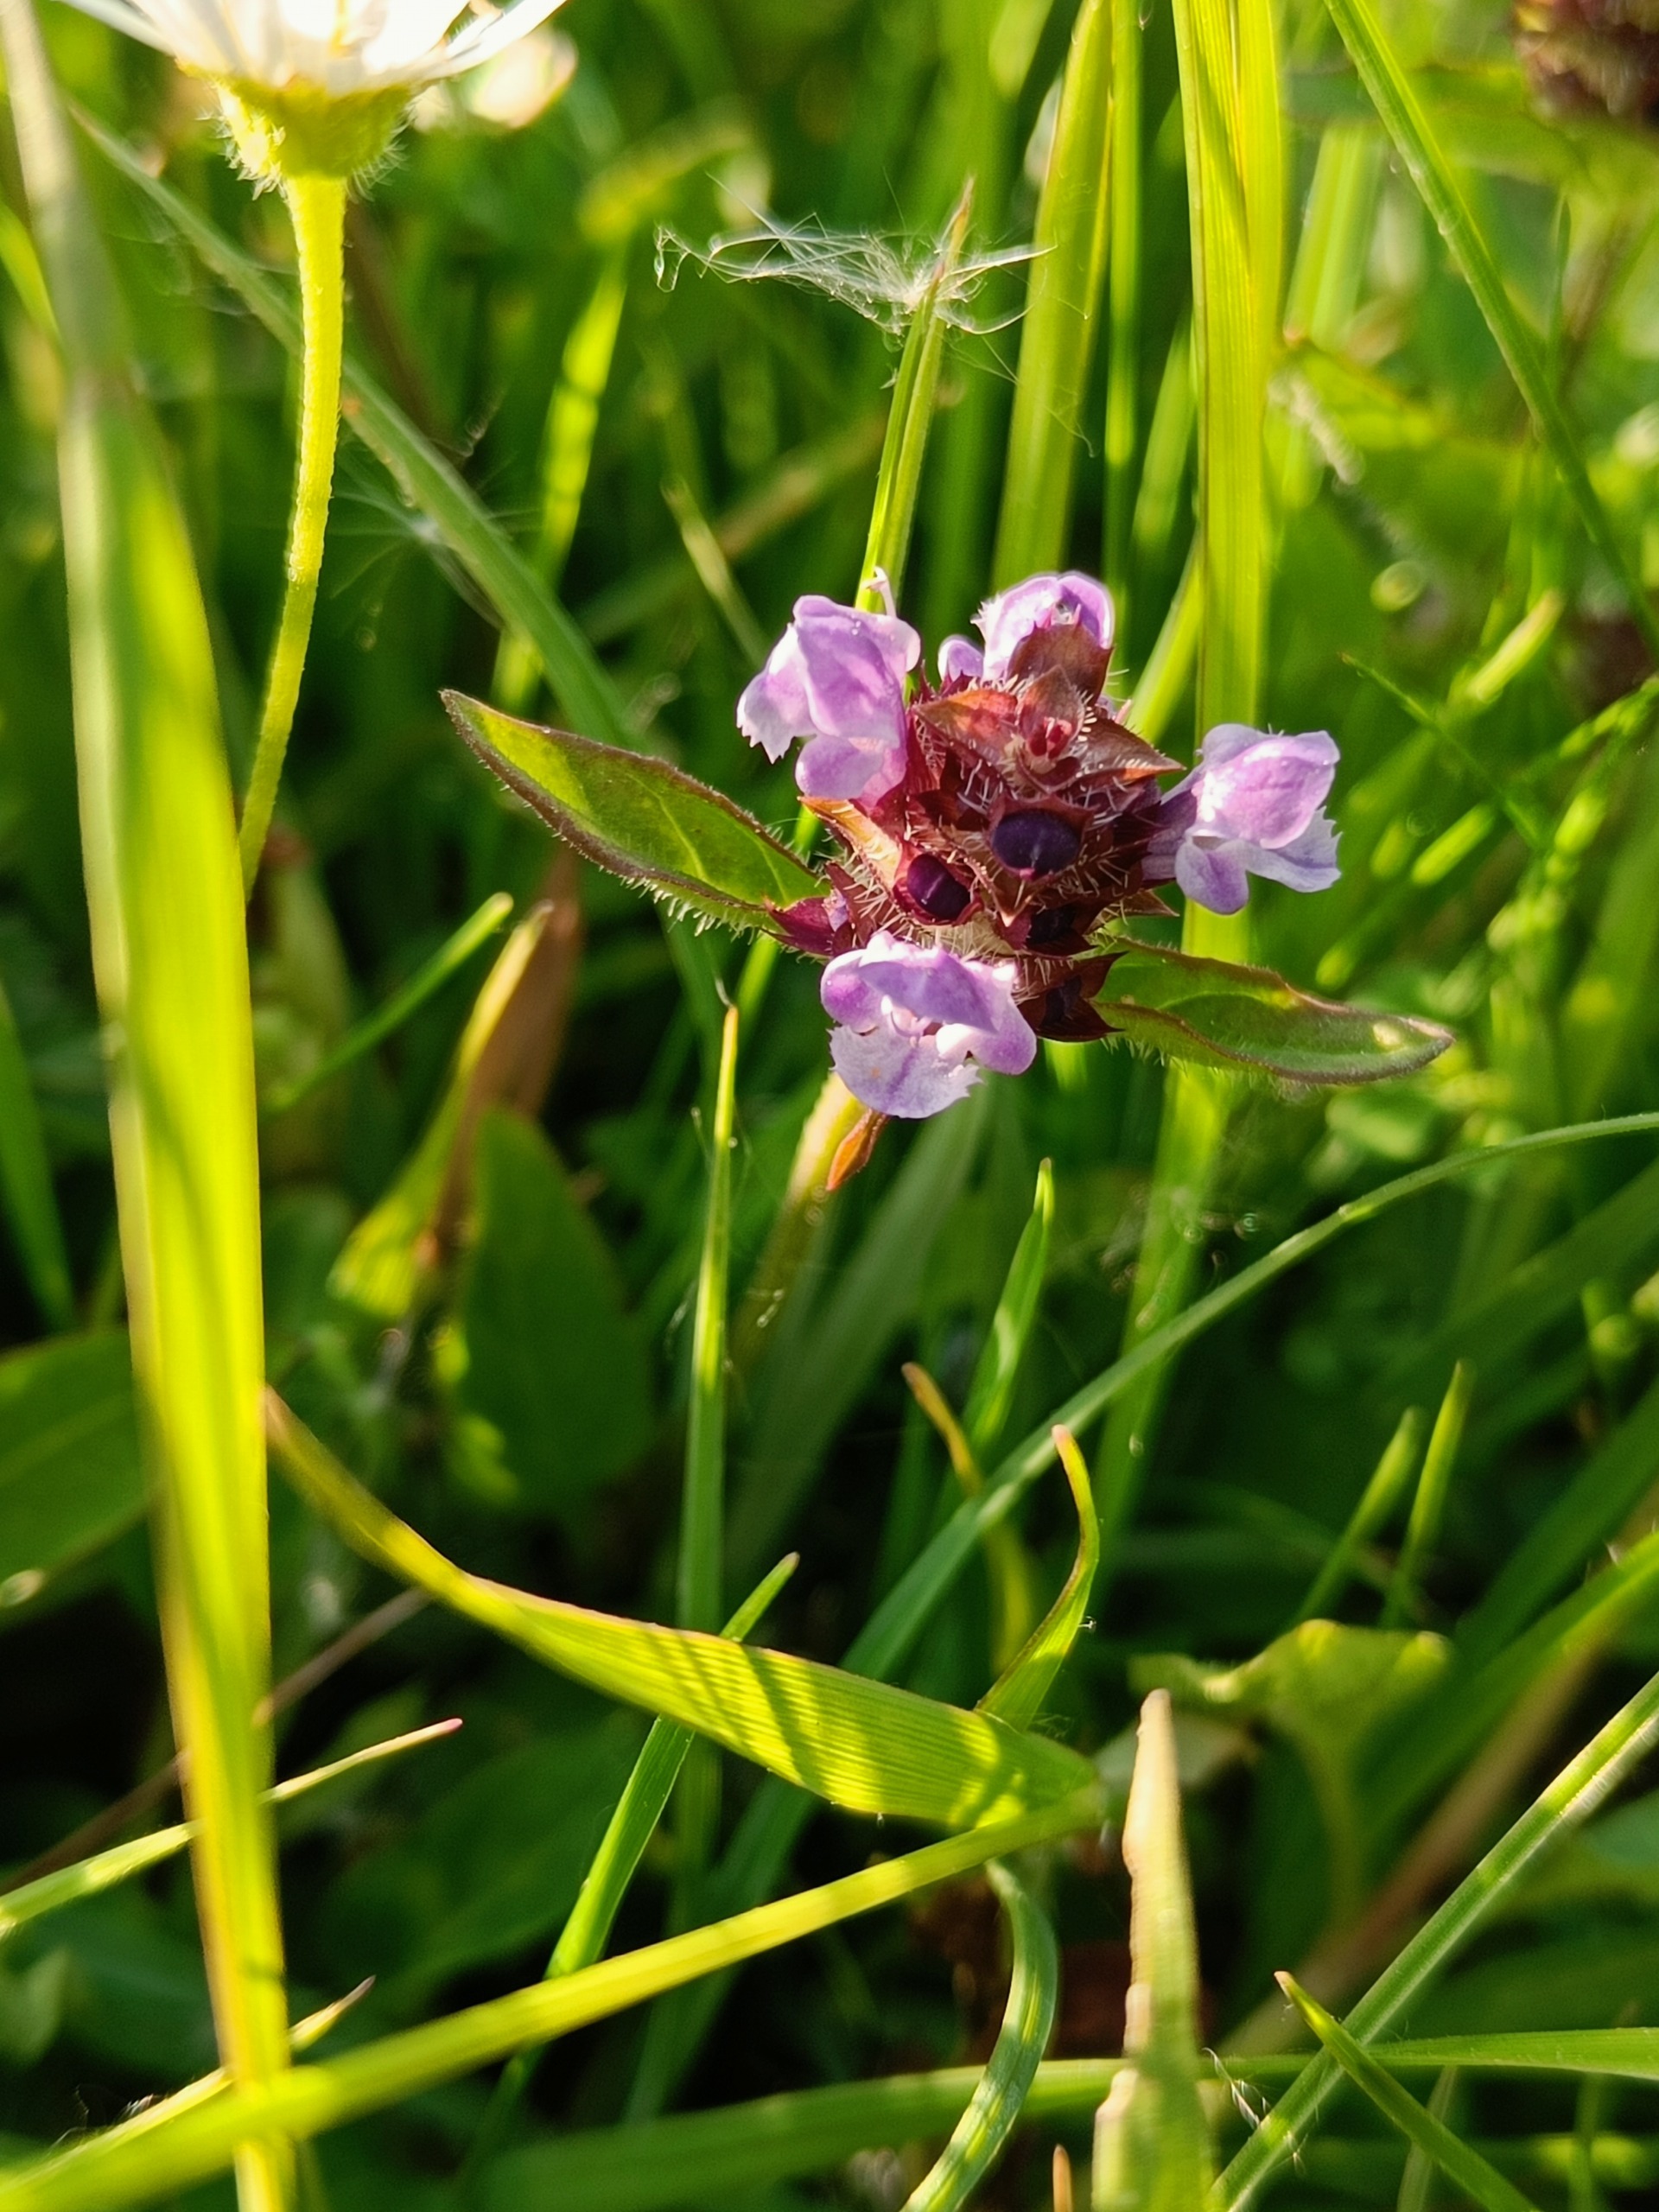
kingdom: Plantae
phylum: Tracheophyta
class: Magnoliopsida
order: Lamiales
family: Lamiaceae
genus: Prunella
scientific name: Prunella vulgaris
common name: Almindelig brunelle
